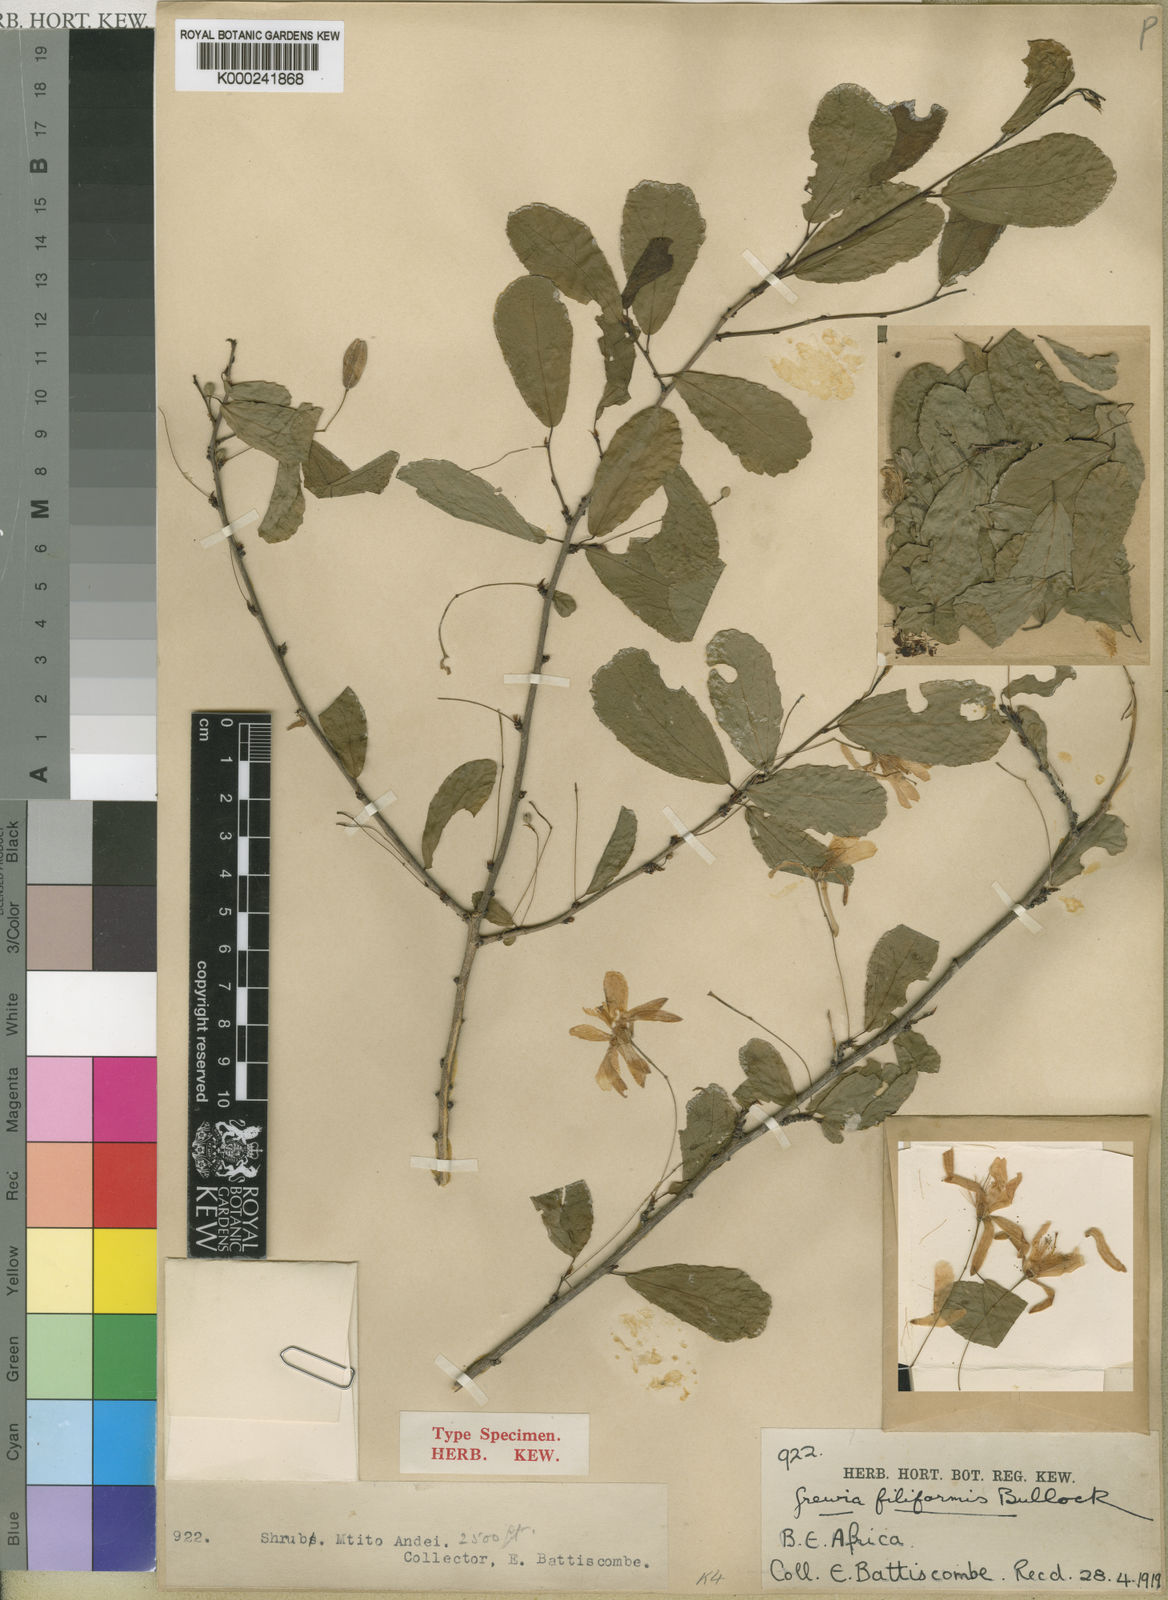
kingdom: Plantae
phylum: Tracheophyta
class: Magnoliopsida
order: Malvales
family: Malvaceae
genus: Grewia
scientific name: Grewia nematopus
